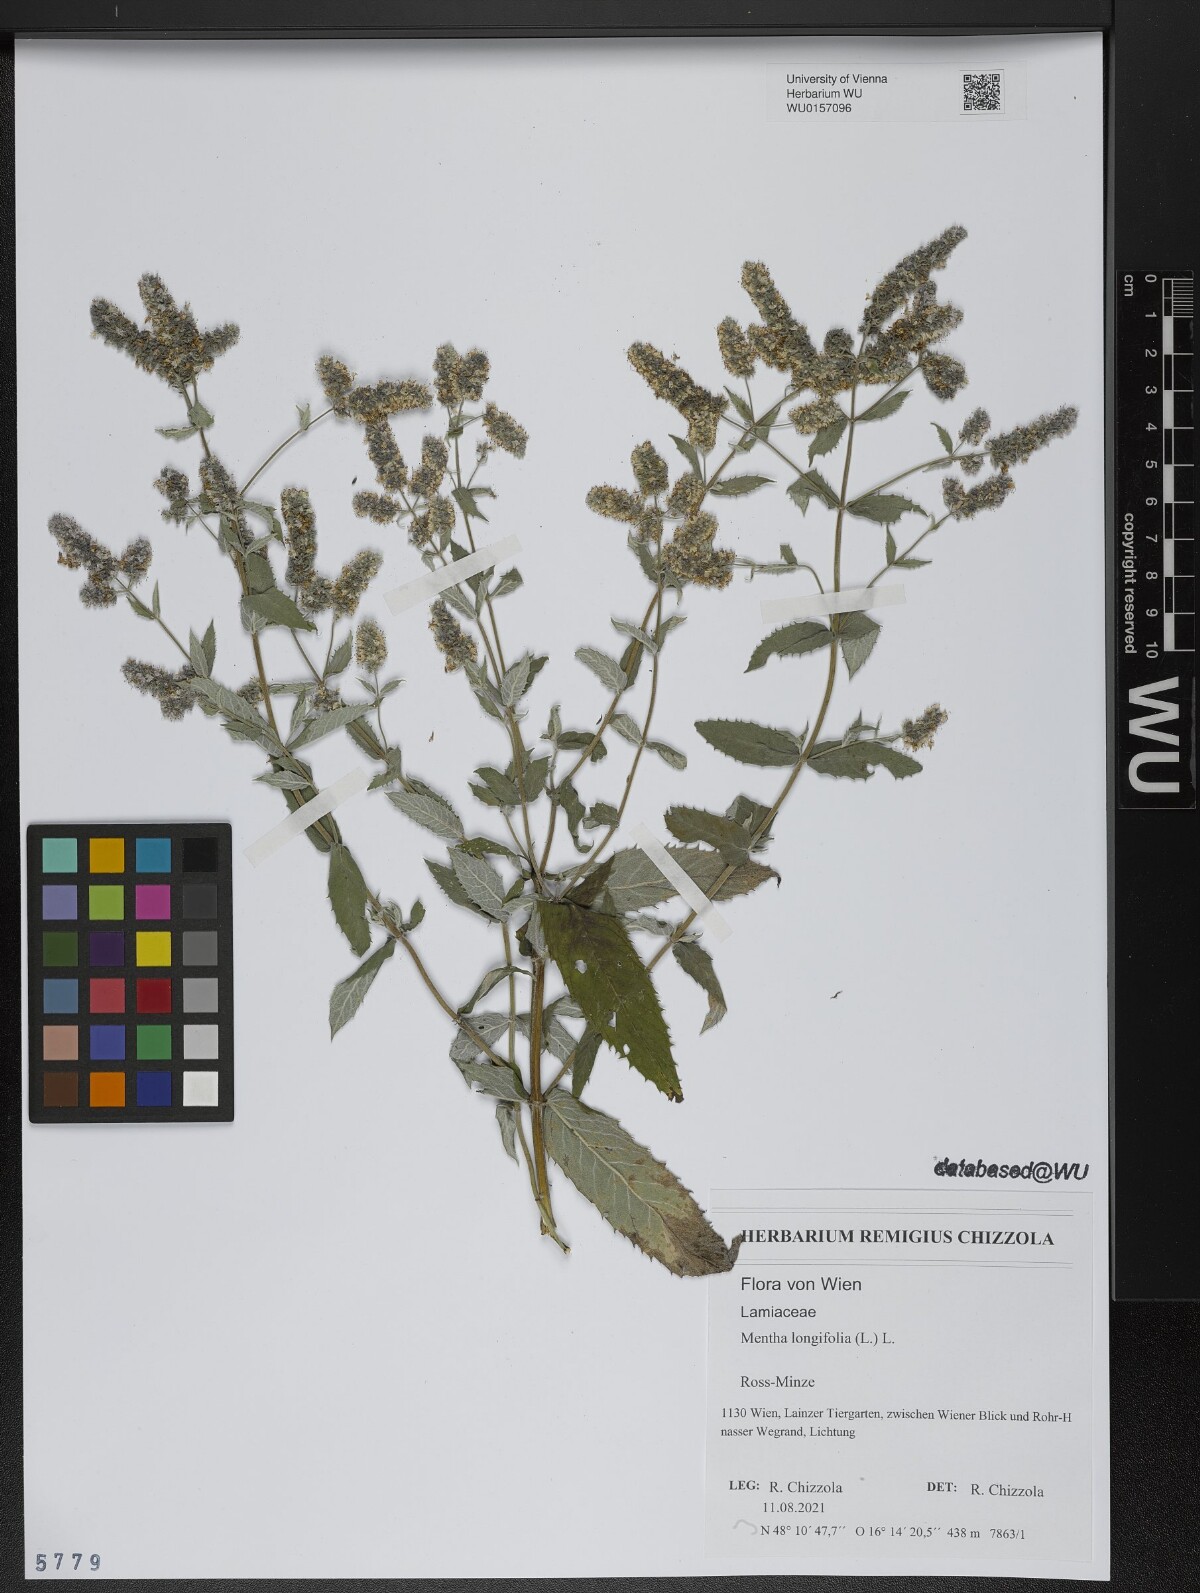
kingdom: Plantae
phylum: Tracheophyta
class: Magnoliopsida
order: Lamiales
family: Lamiaceae
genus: Mentha
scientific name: Mentha longifolia
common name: Horse mint
